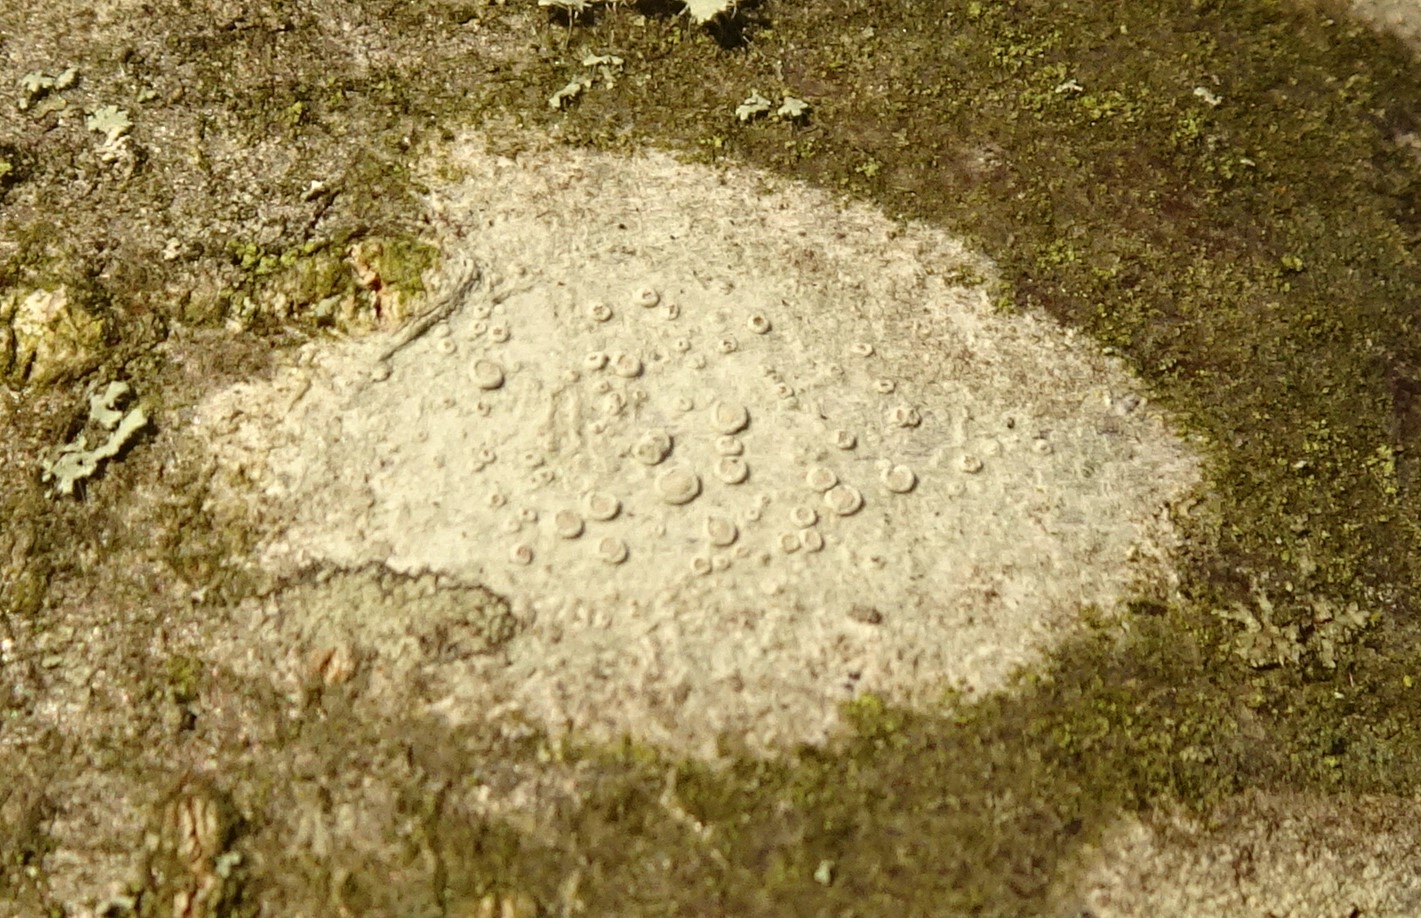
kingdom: Fungi
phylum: Ascomycota
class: Lecanoromycetes
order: Lecanorales
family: Lecanoraceae
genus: Glaucomaria
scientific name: Glaucomaria carpinea
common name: hviddugget kantskivelav
